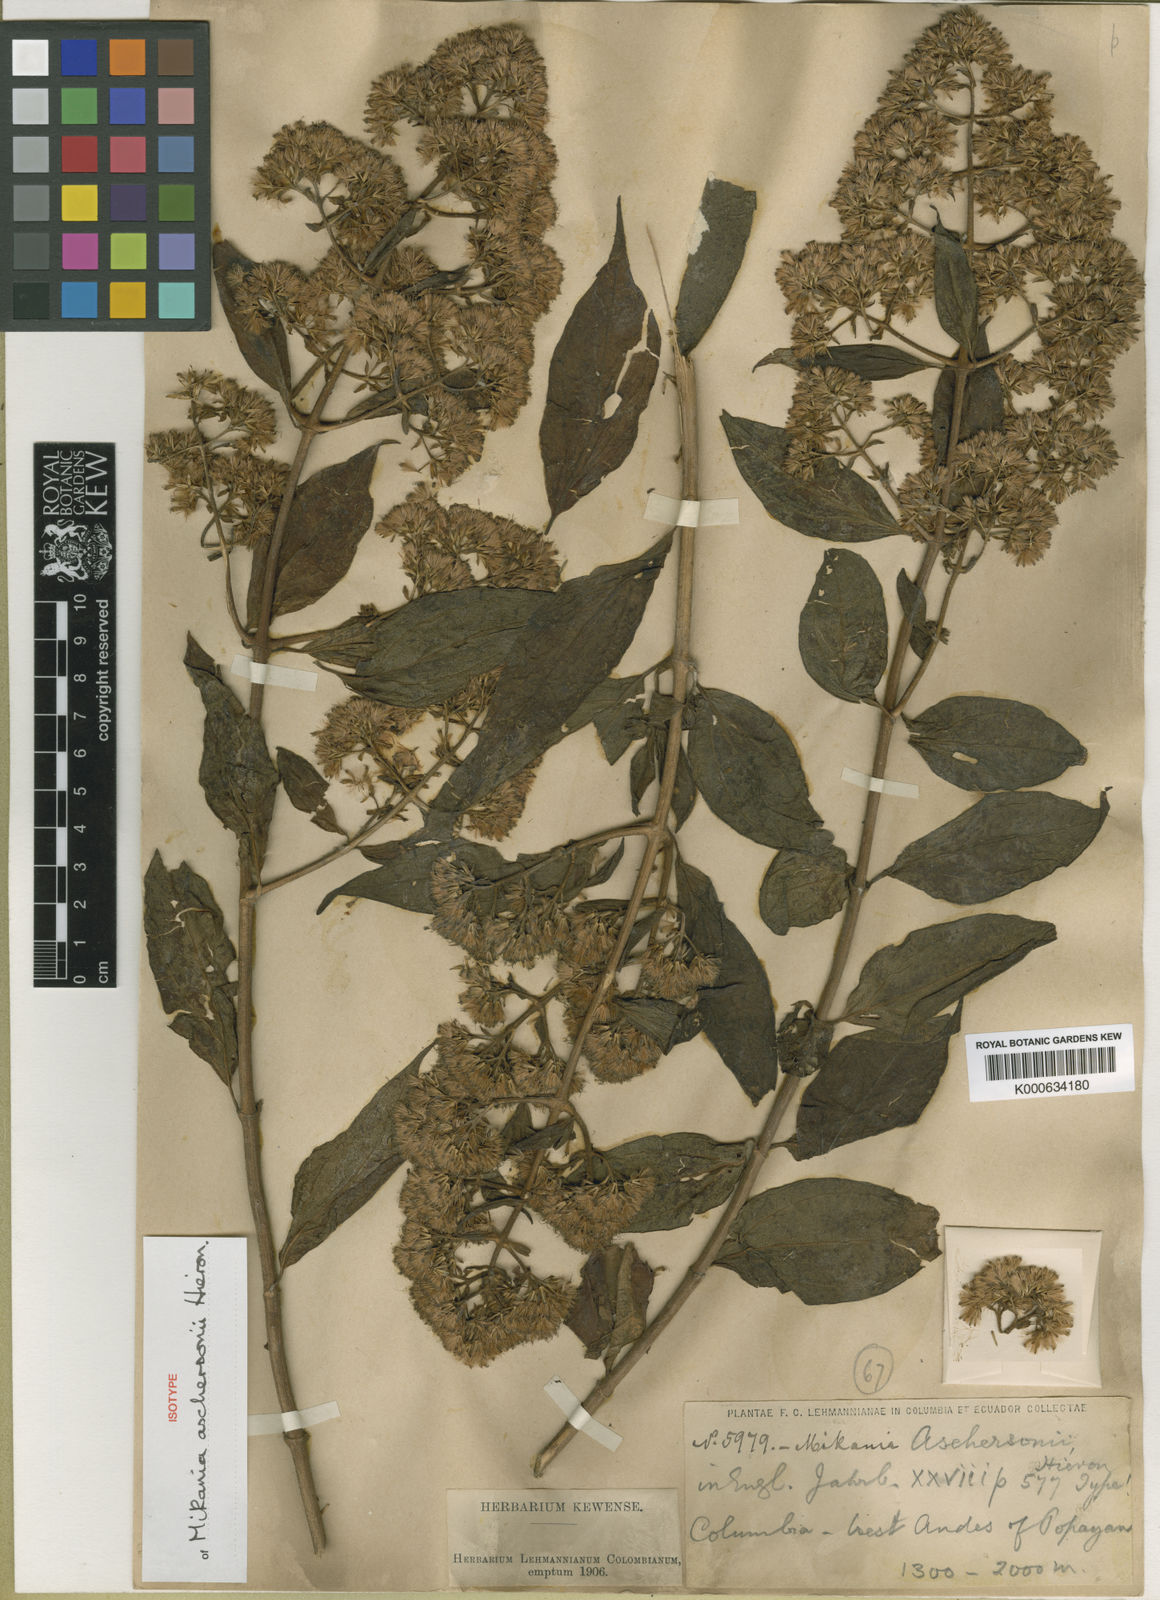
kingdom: Plantae
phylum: Tracheophyta
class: Magnoliopsida
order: Asterales
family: Asteraceae
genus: Mikania
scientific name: Mikania aschersonii
